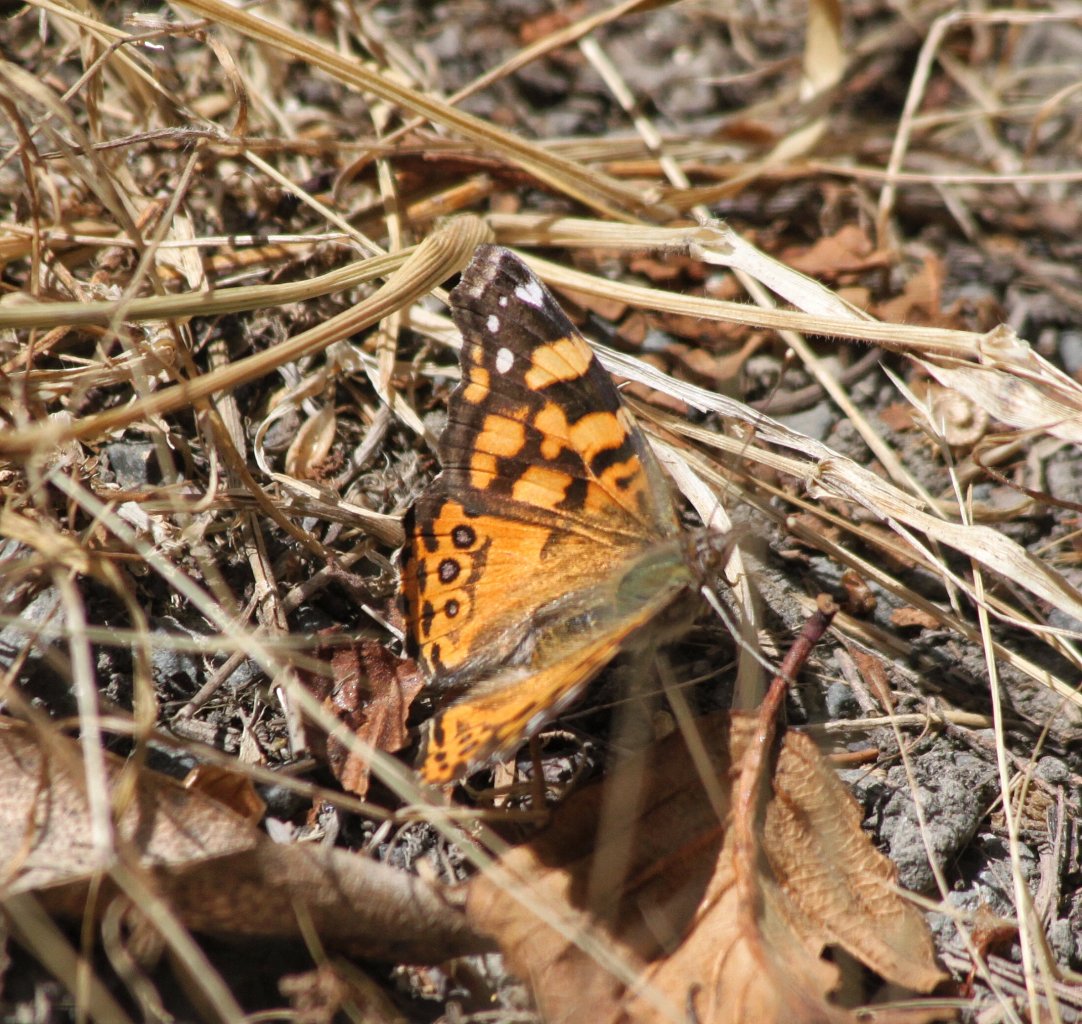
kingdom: Animalia
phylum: Arthropoda
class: Insecta
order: Lepidoptera
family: Nymphalidae
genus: Vanessa
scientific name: Vanessa annabella
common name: West Coast Lady
